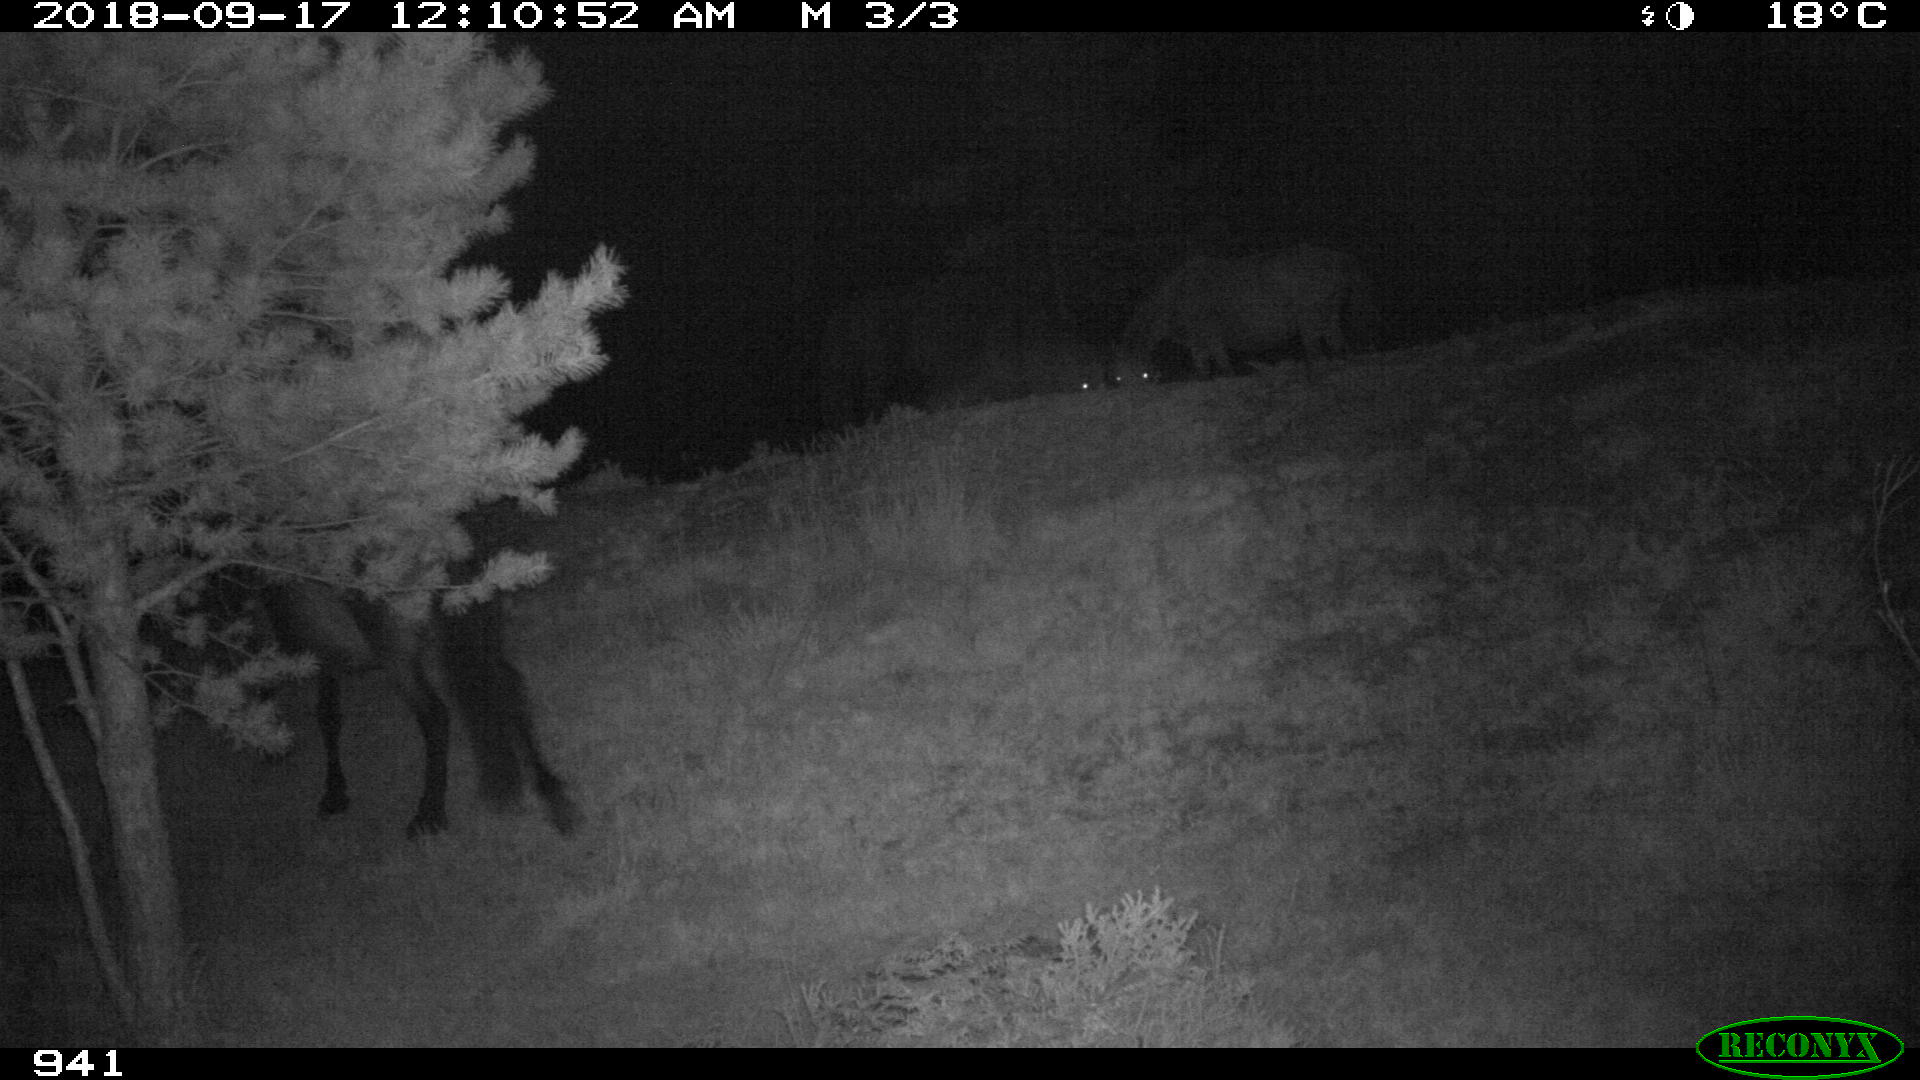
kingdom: Animalia
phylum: Chordata
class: Mammalia
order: Perissodactyla
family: Equidae
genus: Equus
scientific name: Equus caballus
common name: Horse
